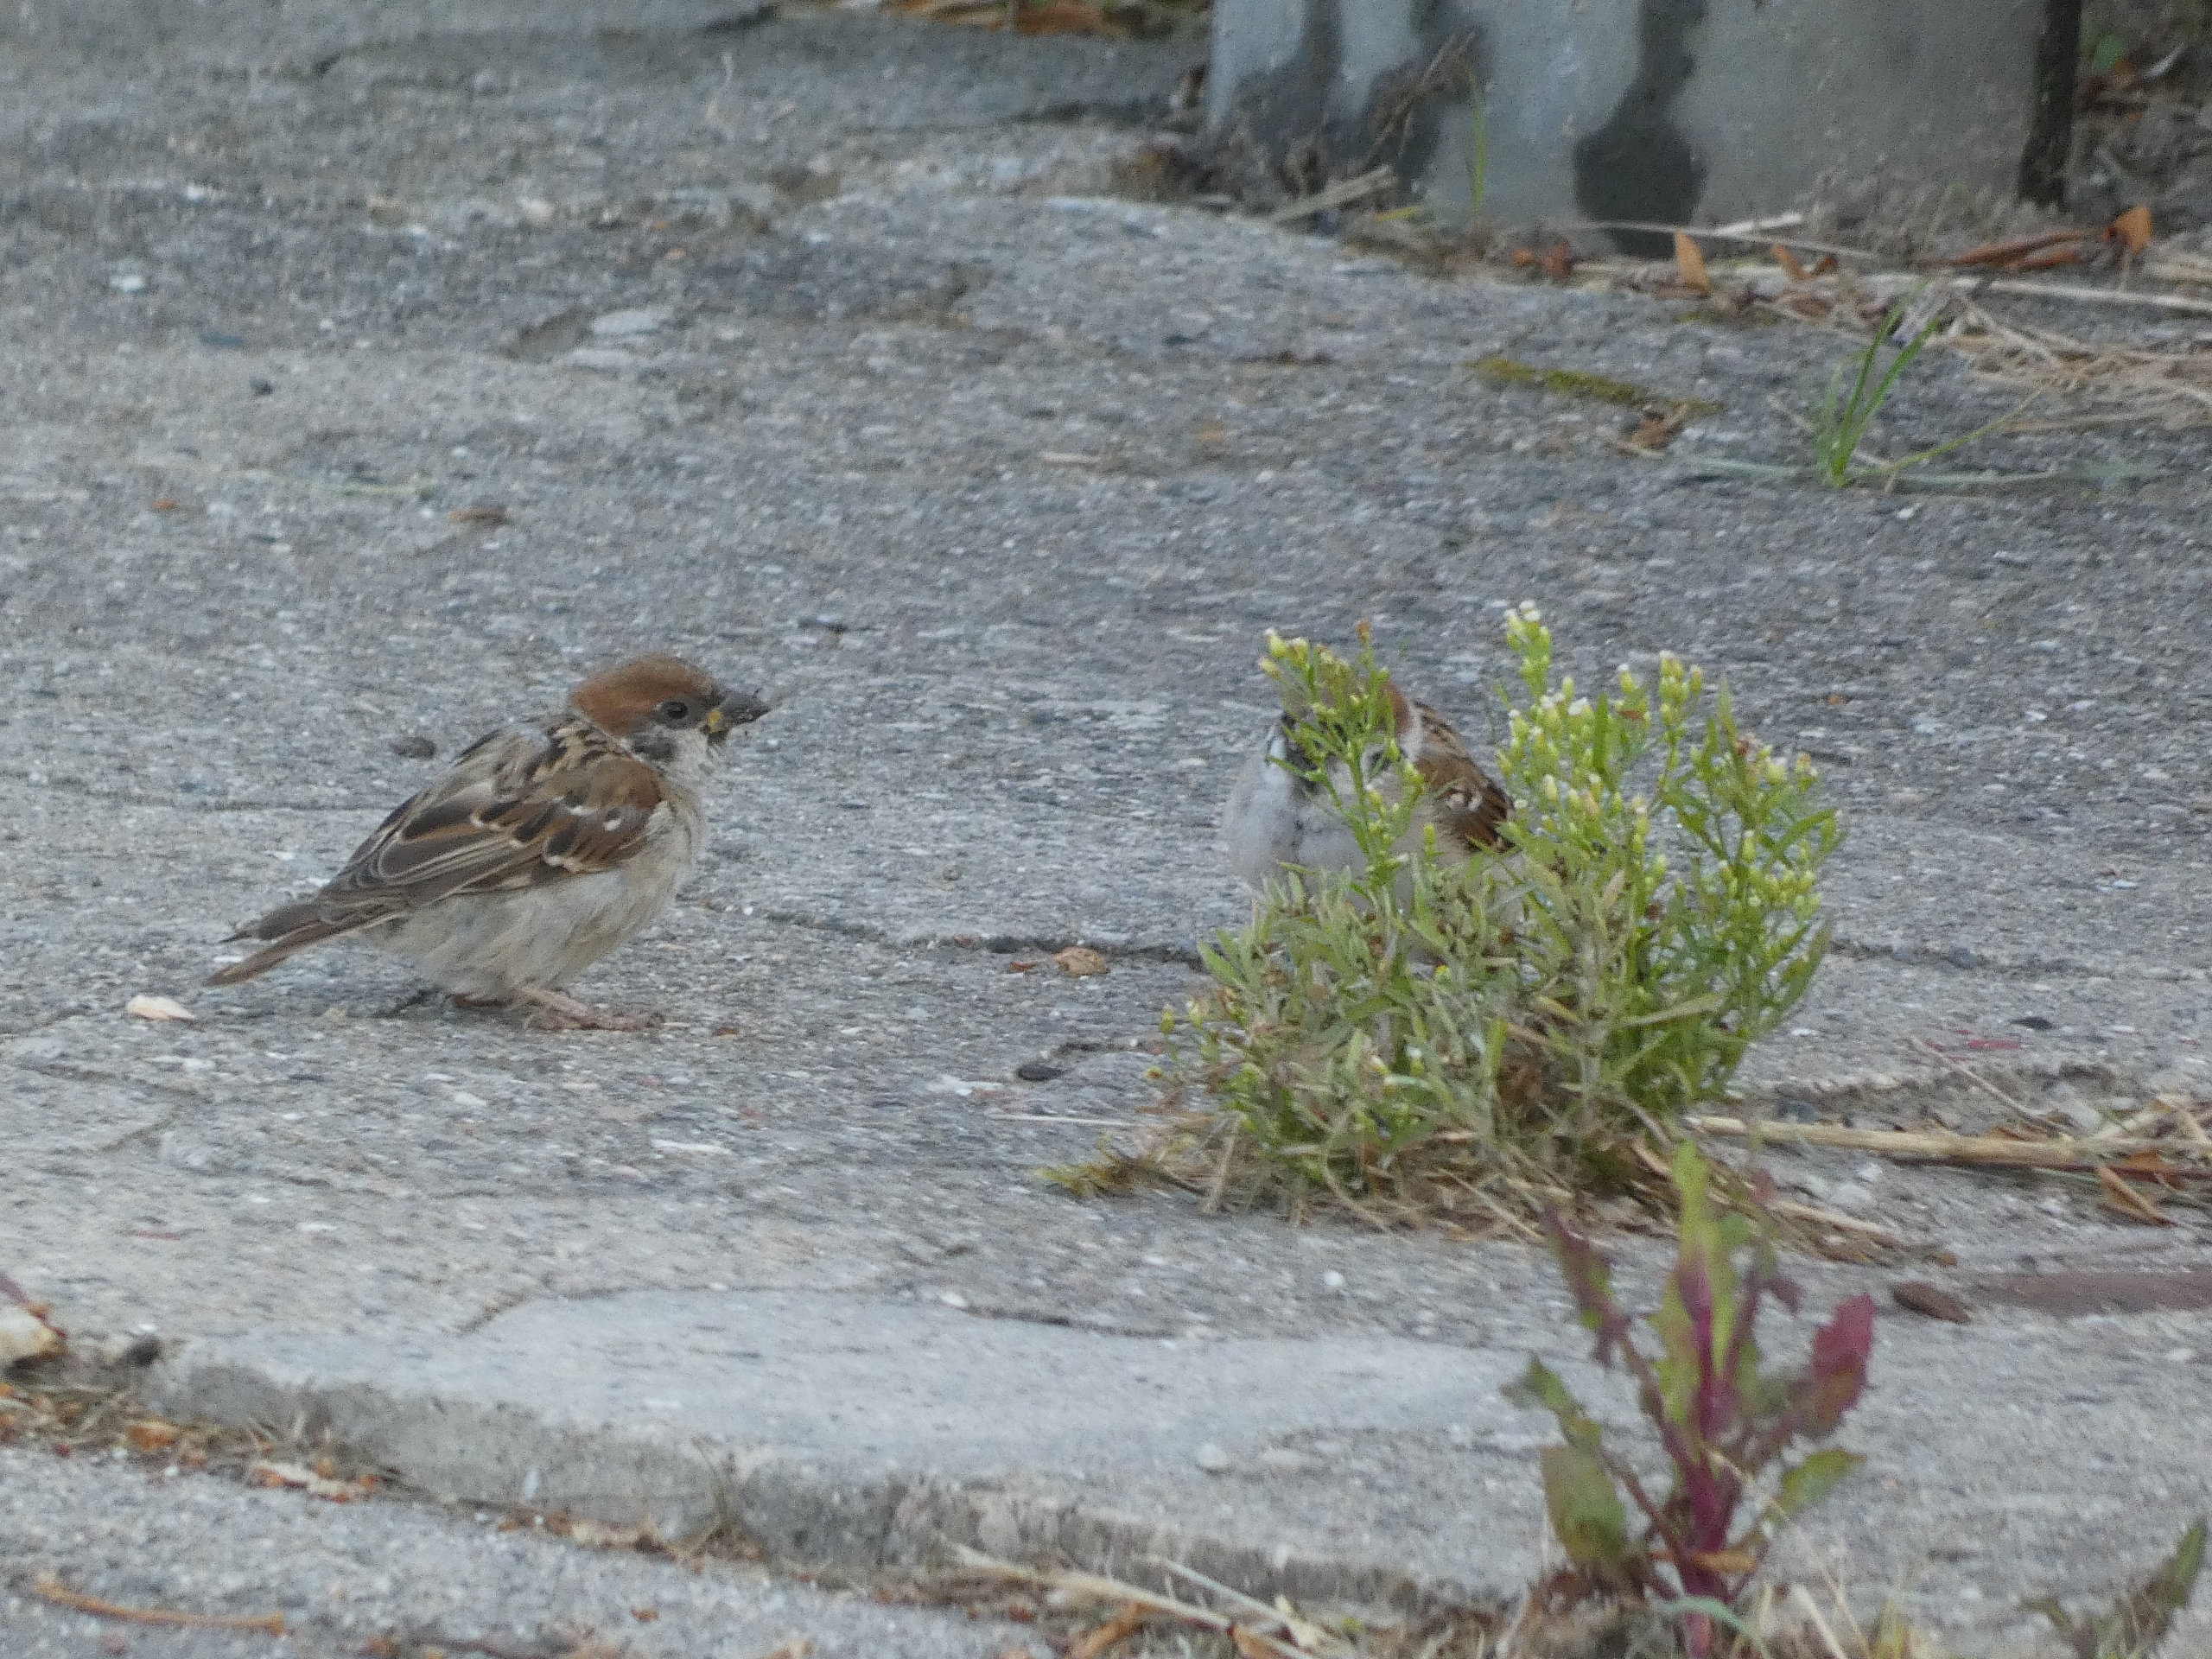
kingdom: Animalia
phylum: Chordata
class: Aves
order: Passeriformes
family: Passeridae
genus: Passer
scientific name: Passer montanus
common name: Skovspurv
